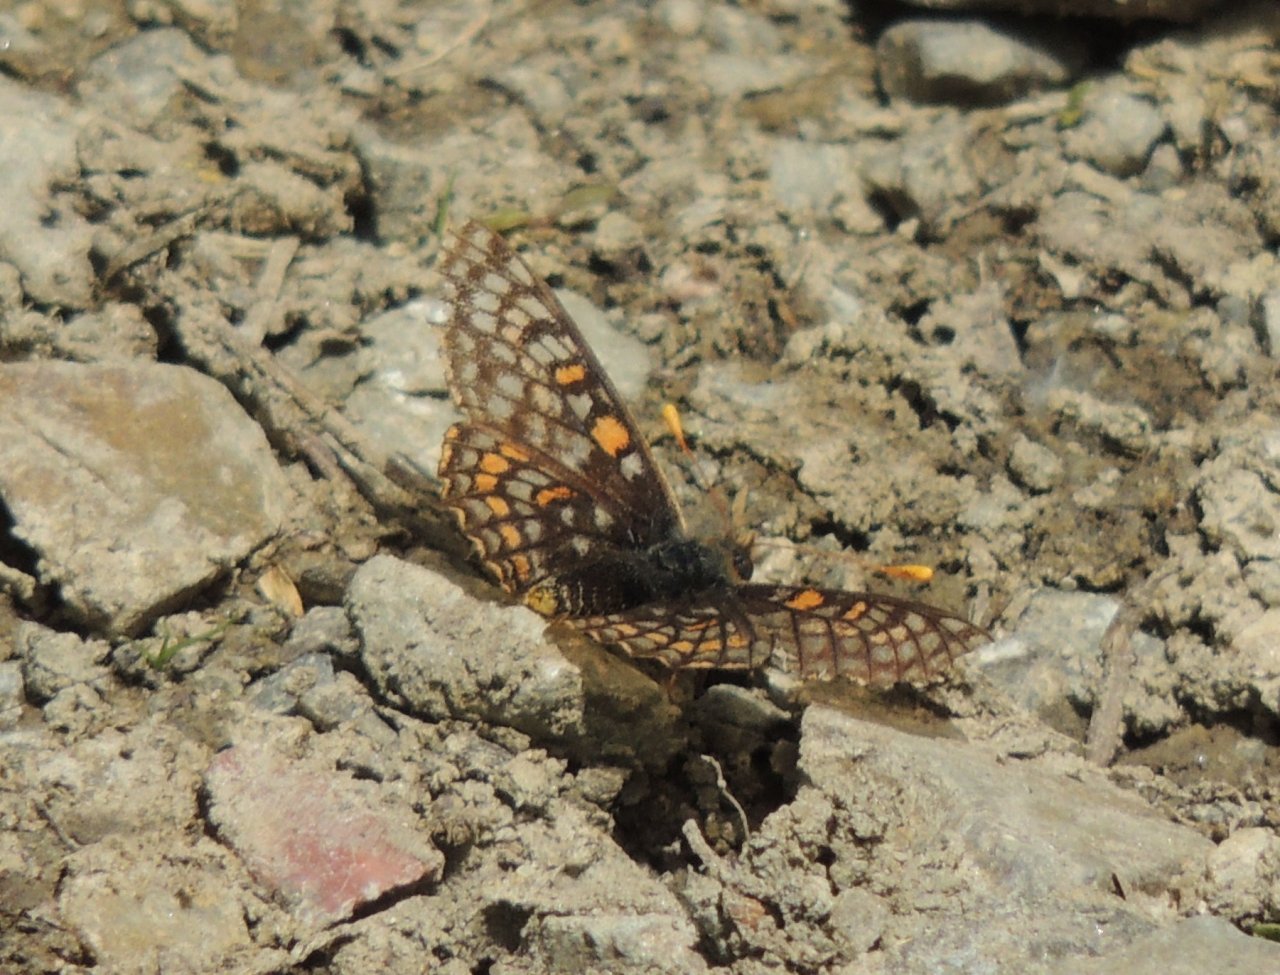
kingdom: Animalia
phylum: Arthropoda
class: Insecta
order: Lepidoptera
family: Nymphalidae
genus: Occidryas
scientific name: Occidryas editha
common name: Edith's Checkerspot
